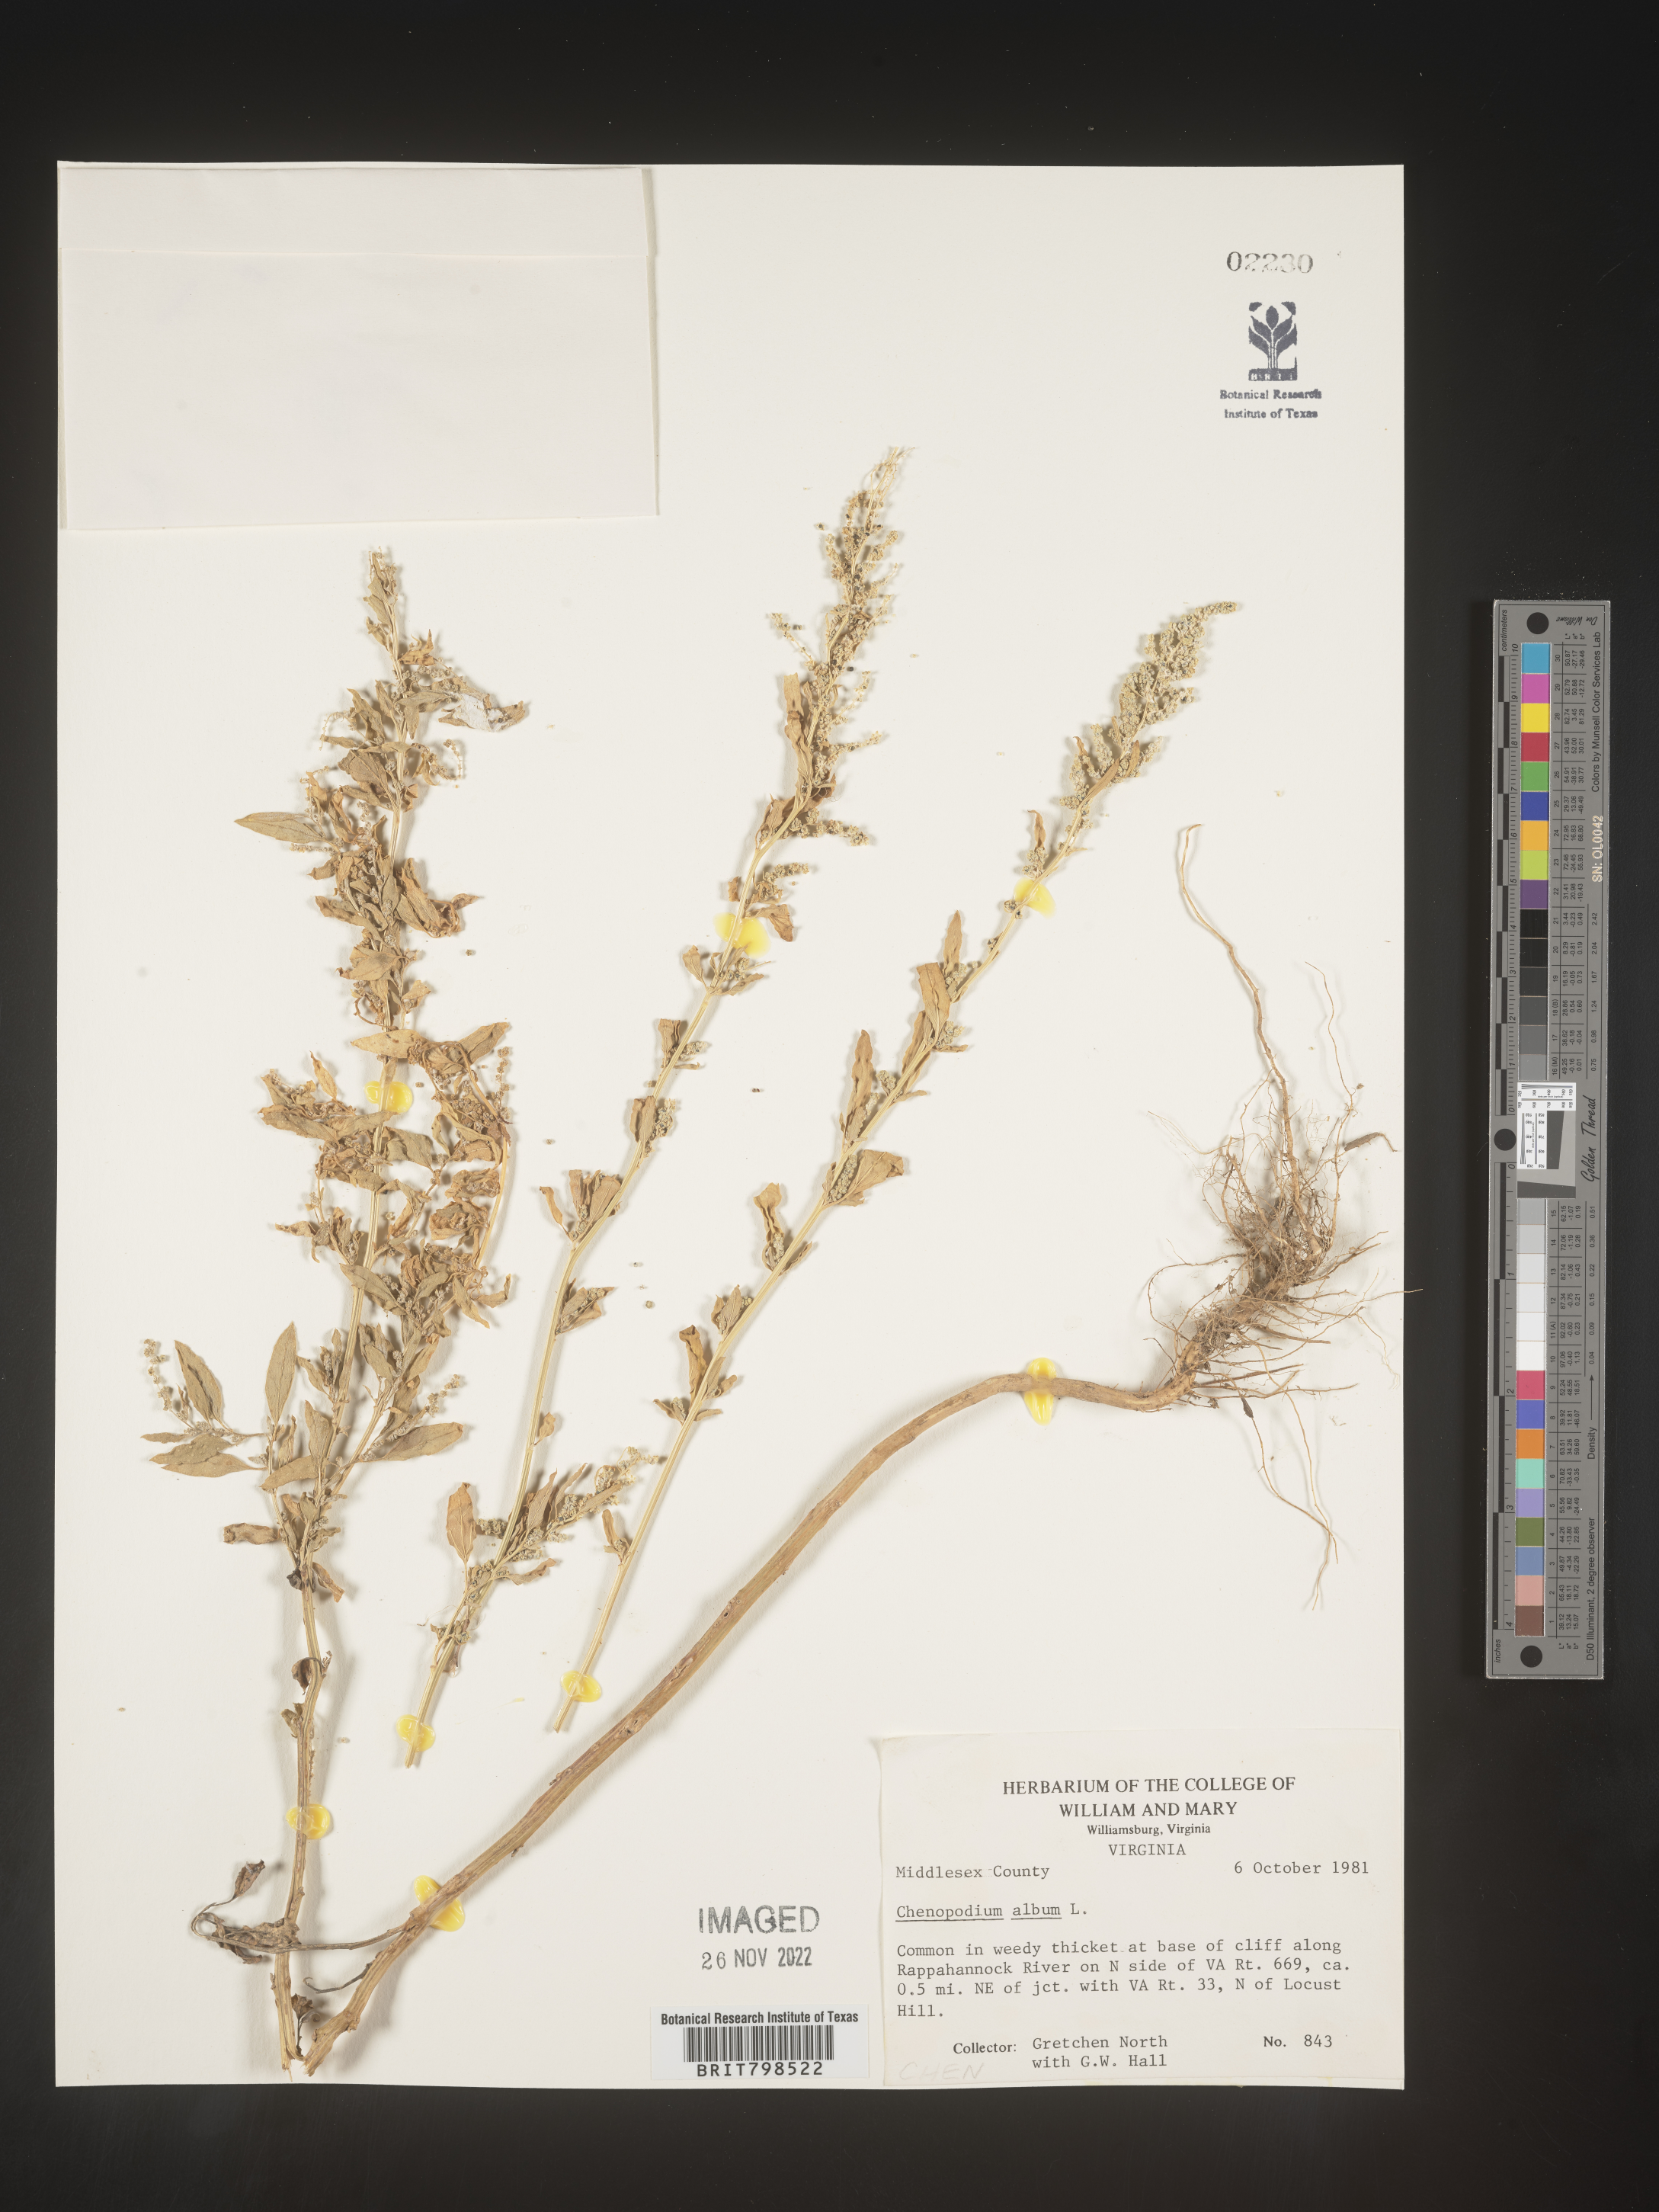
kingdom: Plantae
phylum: Tracheophyta
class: Magnoliopsida
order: Caryophyllales
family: Amaranthaceae
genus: Chenopodium
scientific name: Chenopodium album
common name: Fat-hen
